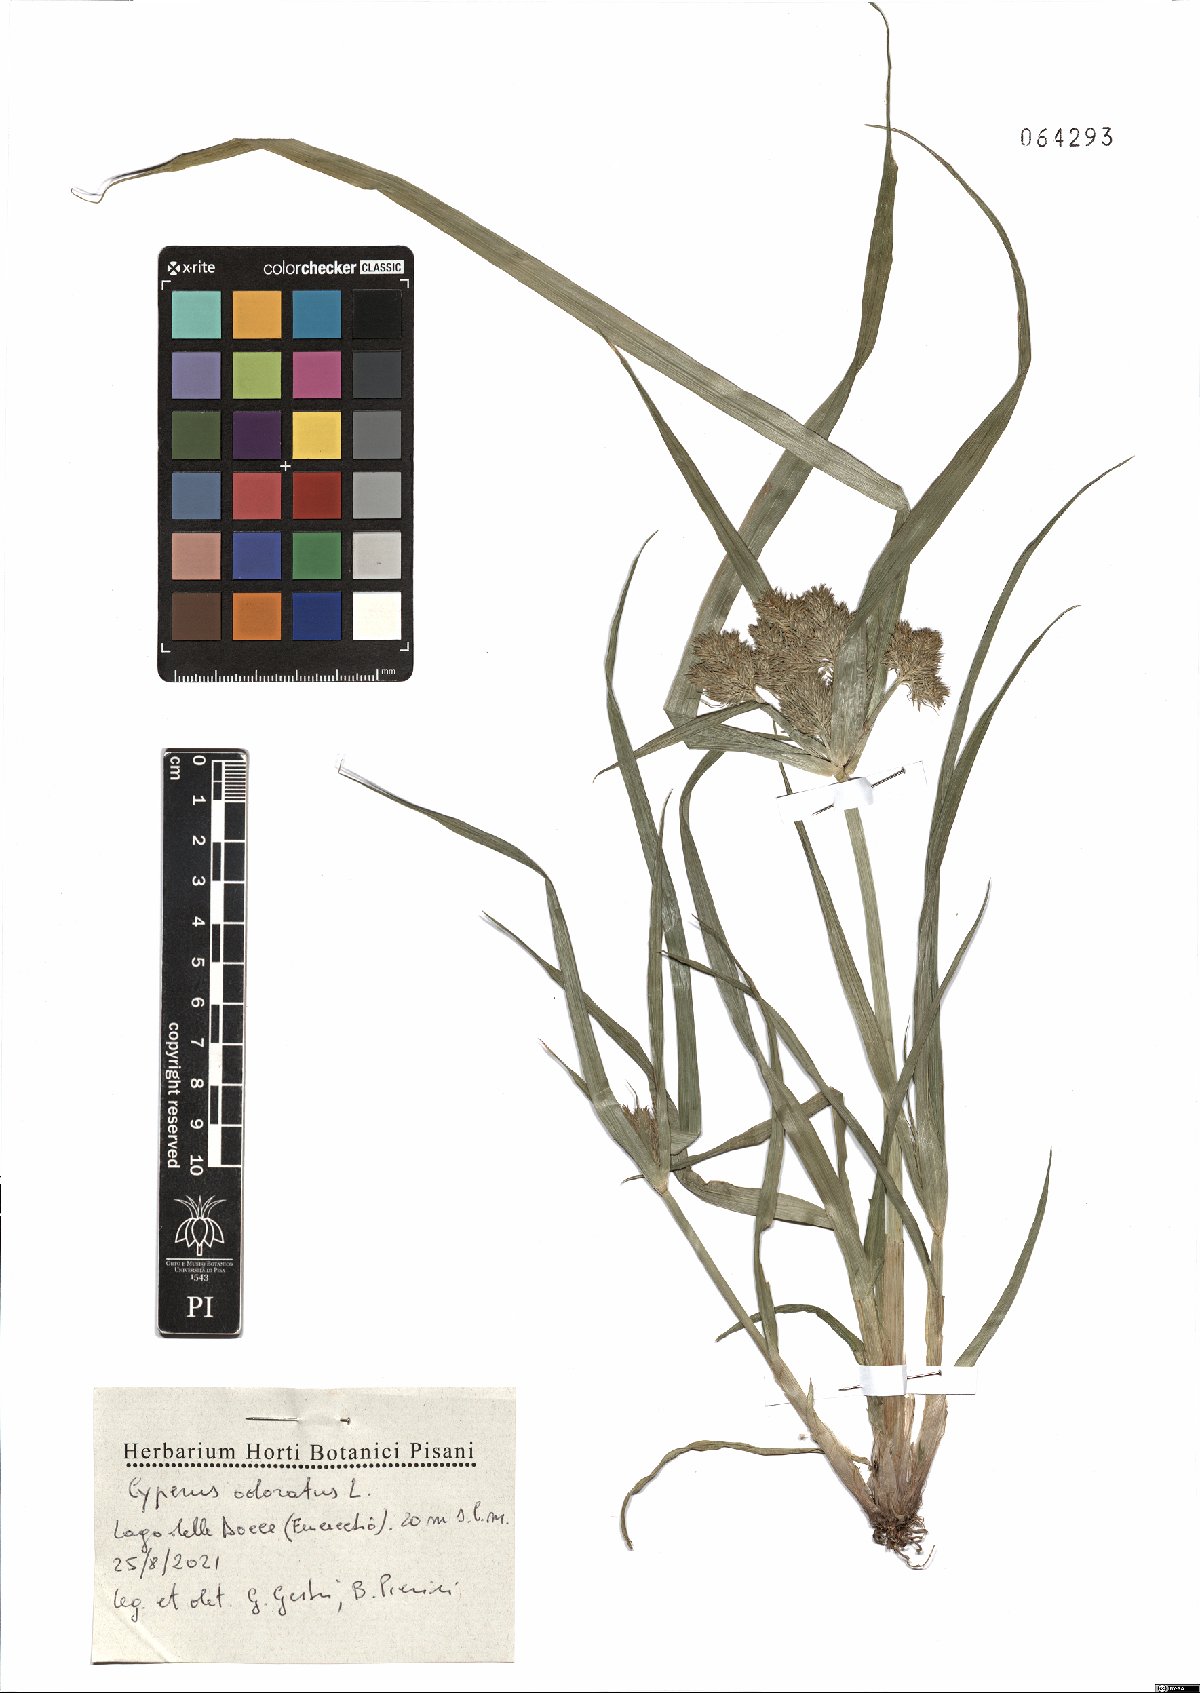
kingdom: Plantae
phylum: Tracheophyta
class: Liliopsida
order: Poales
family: Cyperaceae
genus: Cyperus
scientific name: Cyperus odoratus
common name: Fragrant flatsedge
